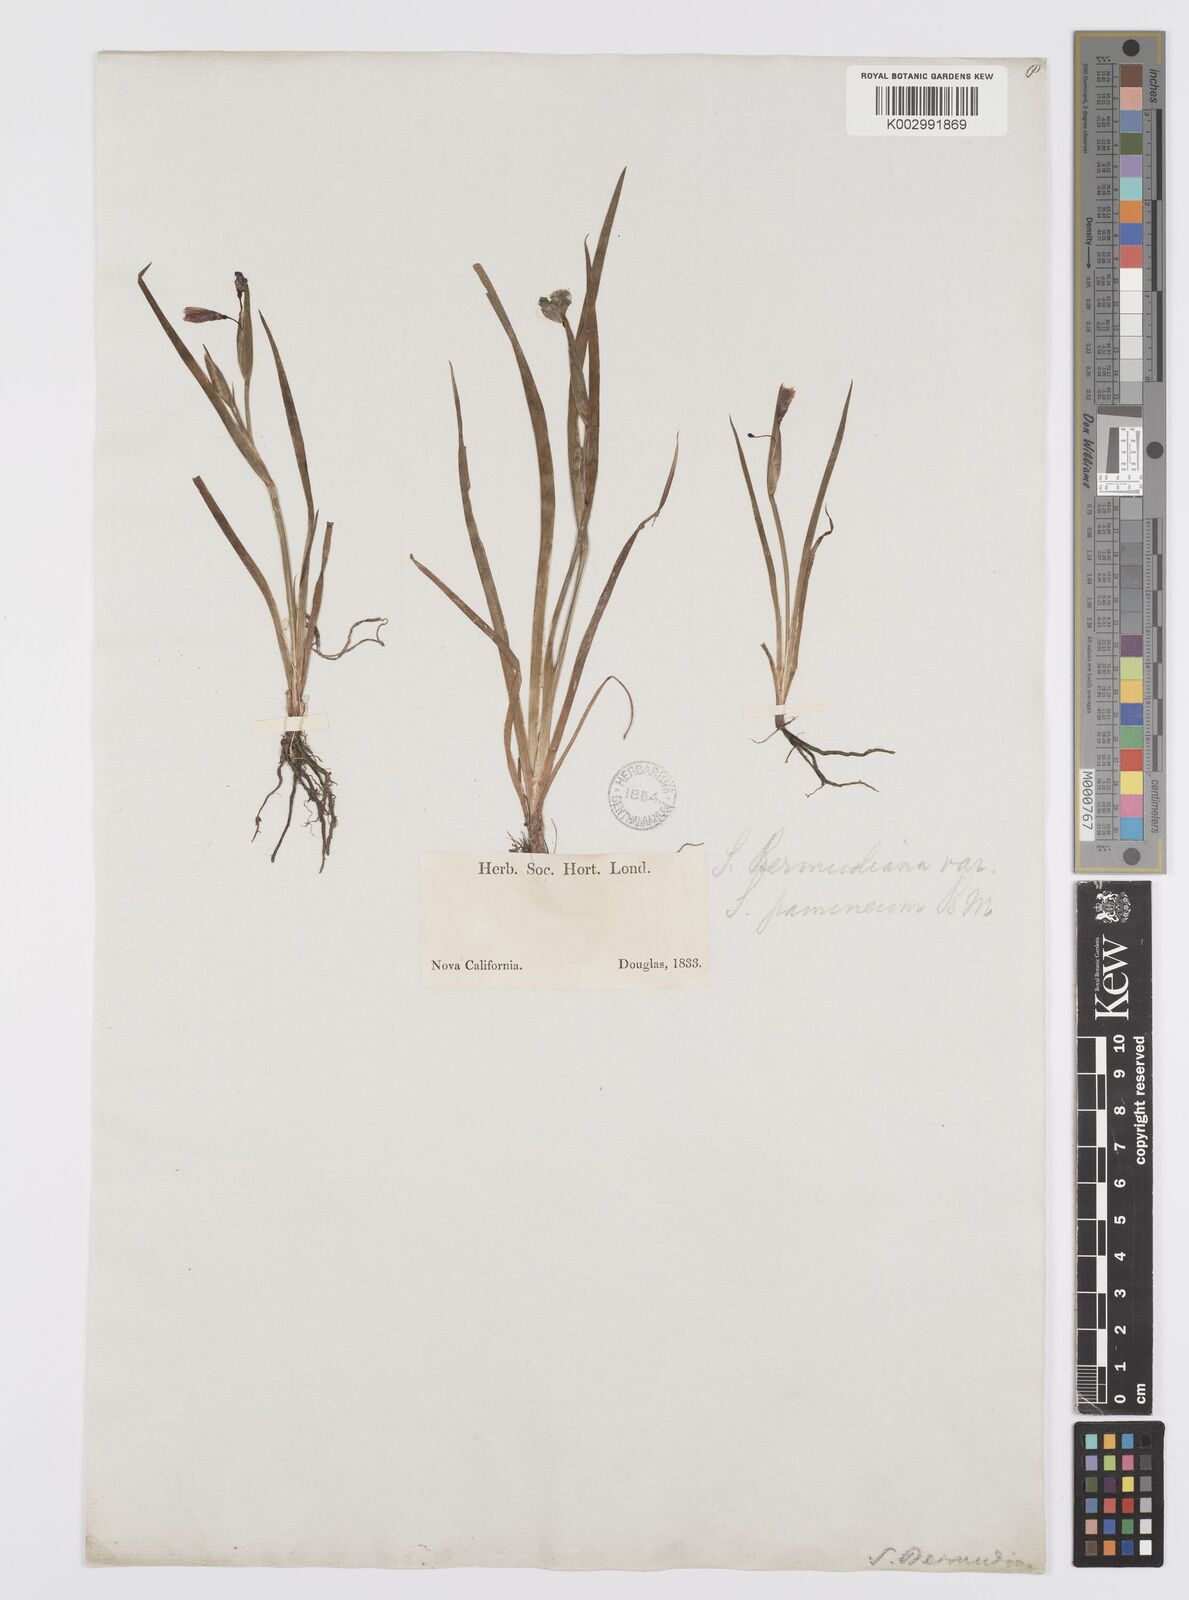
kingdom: Plantae
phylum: Tracheophyta
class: Liliopsida
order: Asparagales
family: Iridaceae
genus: Sisyrinchium
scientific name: Sisyrinchium
